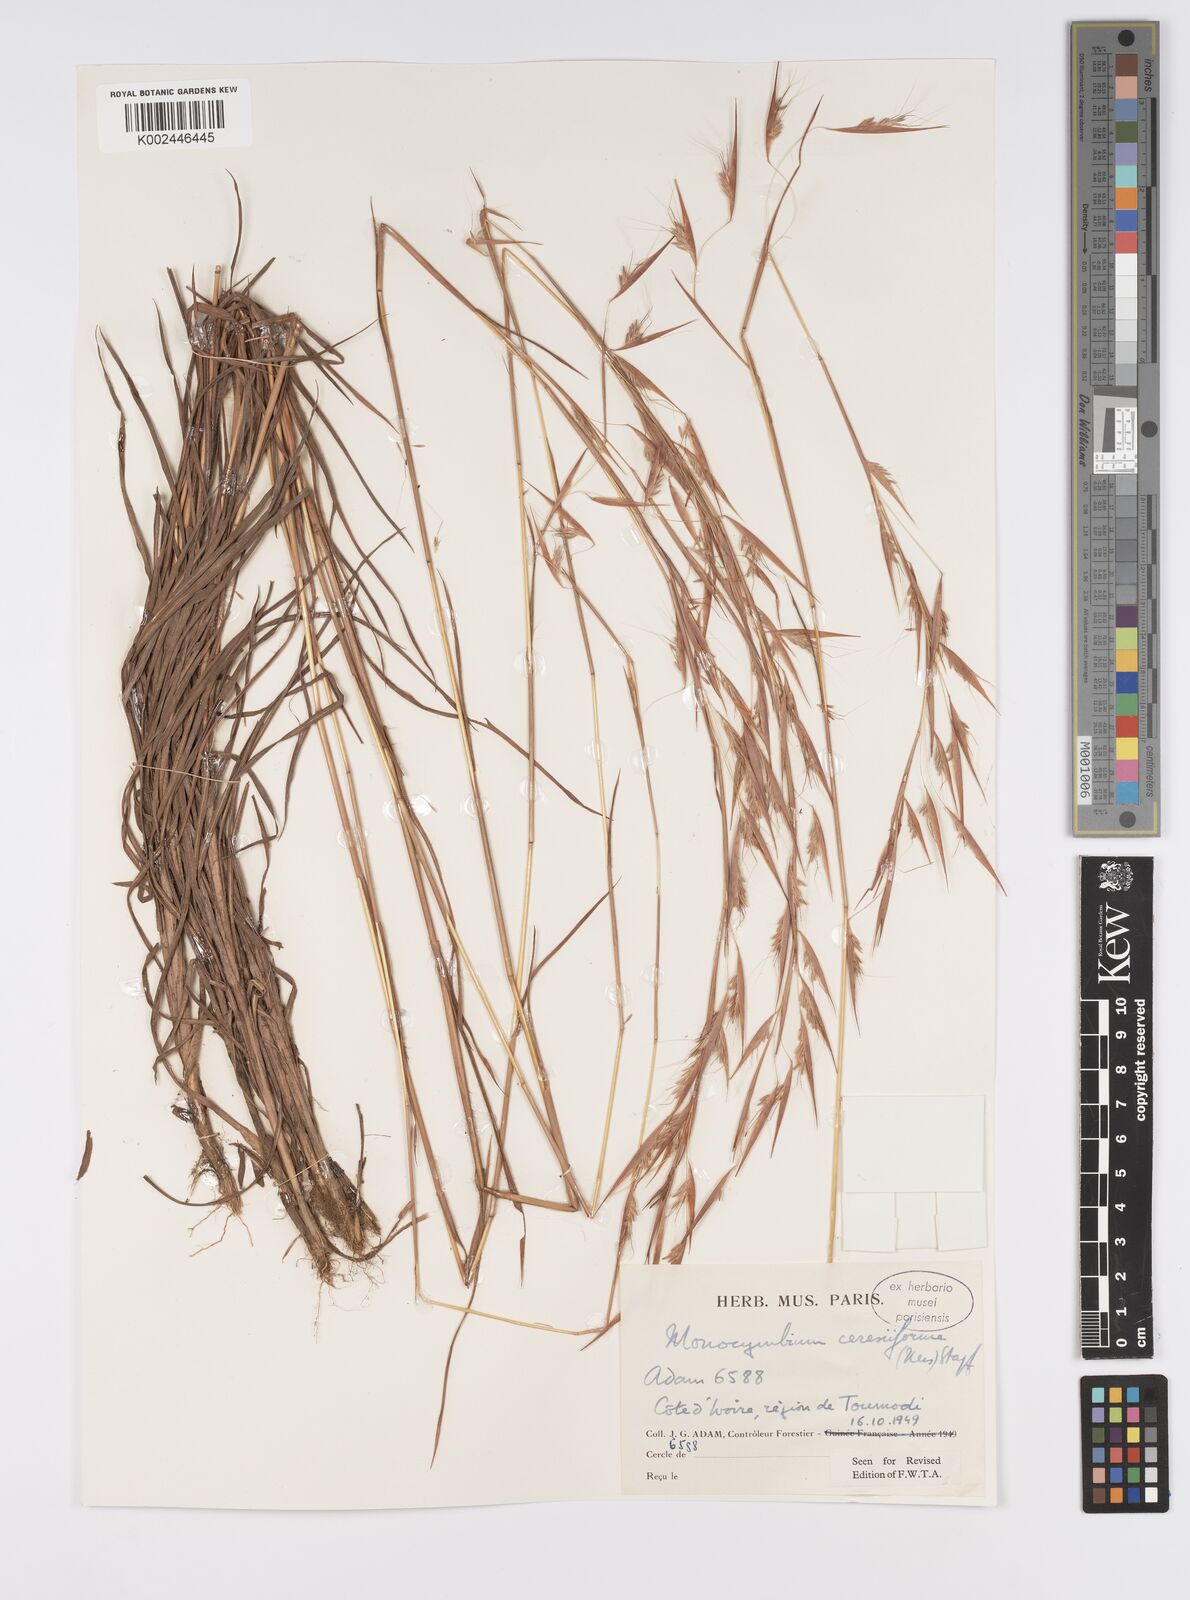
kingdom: Plantae
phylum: Tracheophyta
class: Liliopsida
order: Poales
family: Poaceae
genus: Monocymbium
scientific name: Monocymbium ceresiiforme
